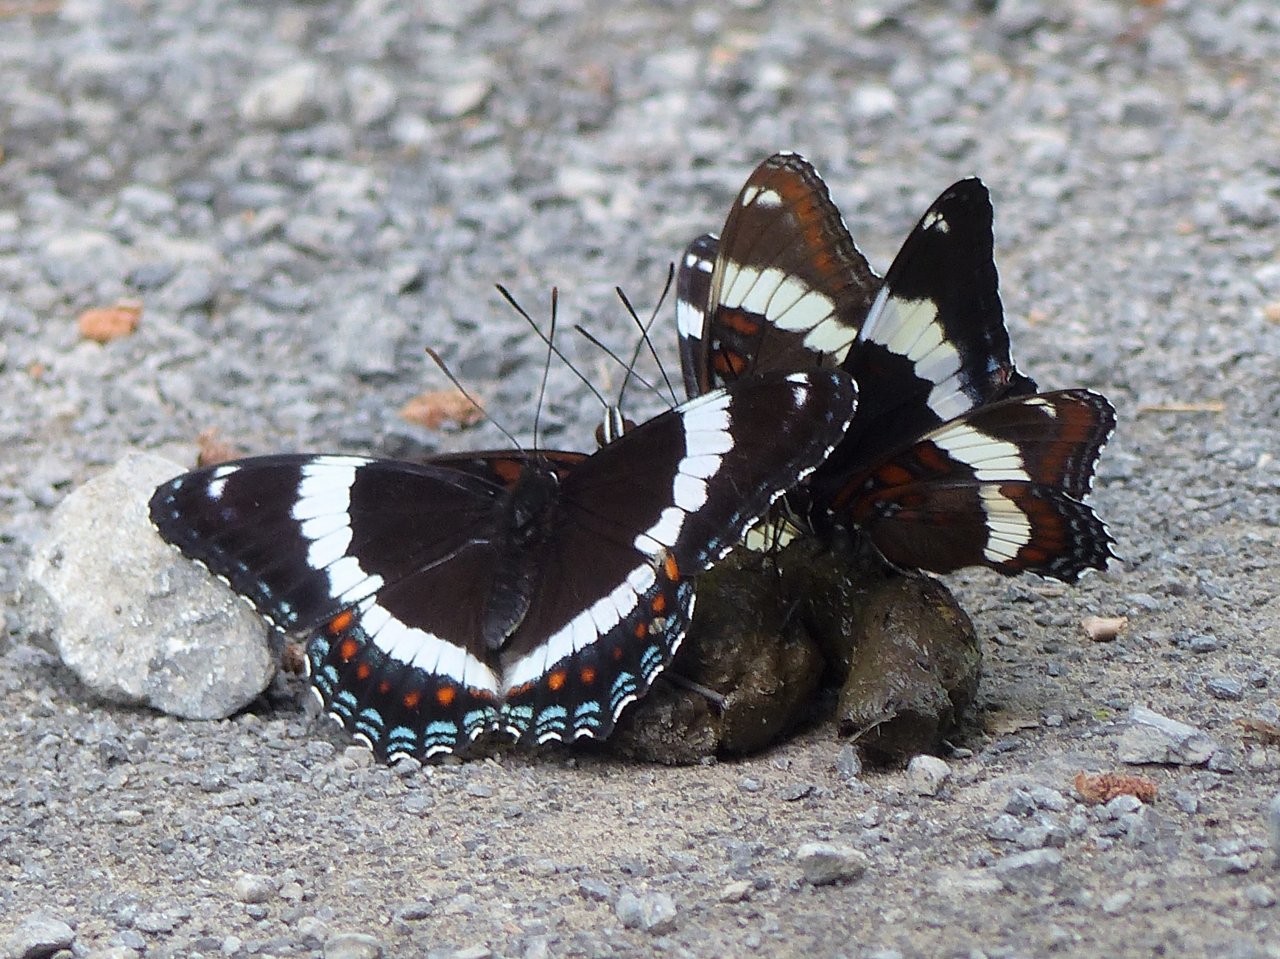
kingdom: Animalia
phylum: Arthropoda
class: Insecta
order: Lepidoptera
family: Nymphalidae
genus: Limenitis
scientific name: Limenitis arthemis
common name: Red-spotted Admiral
